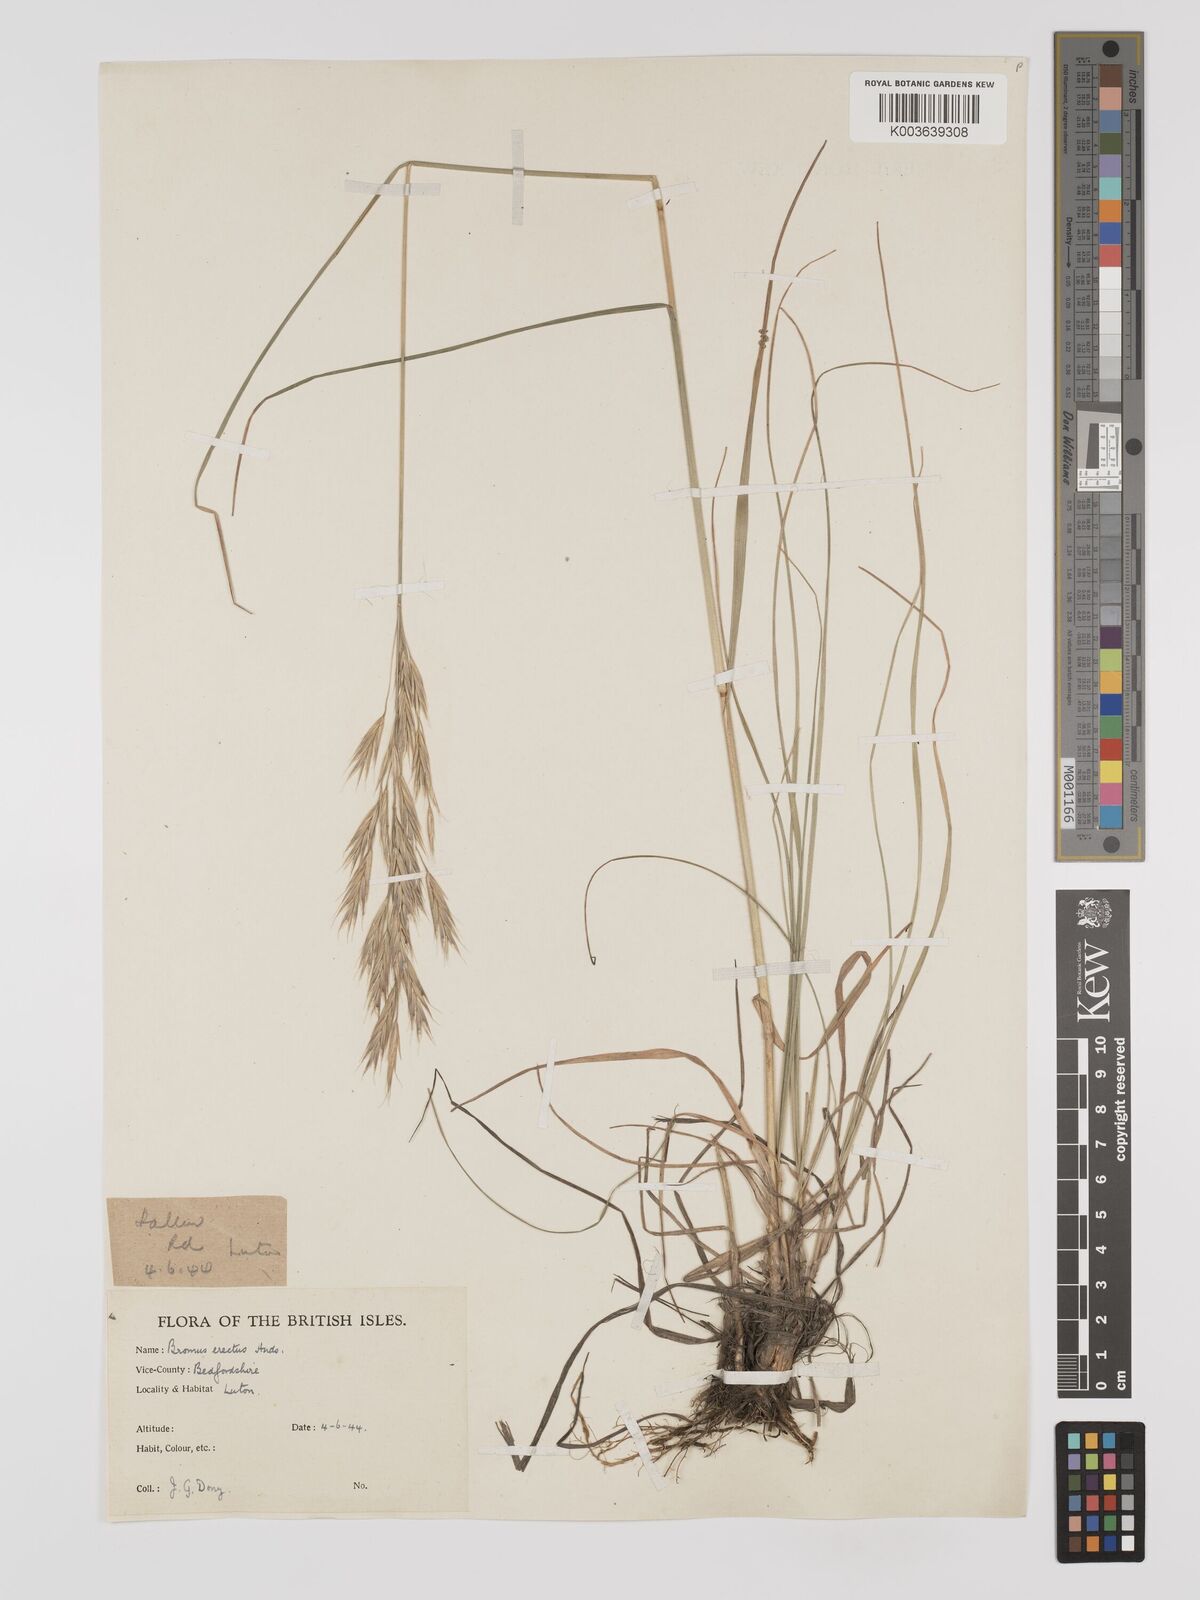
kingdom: Plantae
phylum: Tracheophyta
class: Liliopsida
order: Poales
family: Poaceae
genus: Bromus
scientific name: Bromus erectus
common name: Erect brome
